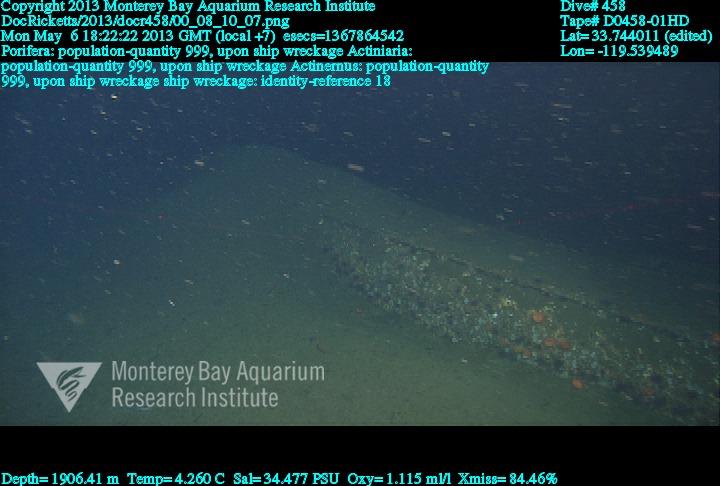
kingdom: Animalia
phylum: Porifera
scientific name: Porifera
